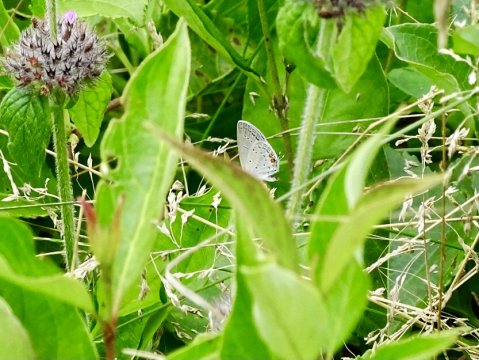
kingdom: Animalia
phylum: Arthropoda
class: Insecta
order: Lepidoptera
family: Lycaenidae
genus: Elkalyce
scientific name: Elkalyce comyntas
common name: Eastern Tailed-Blue
